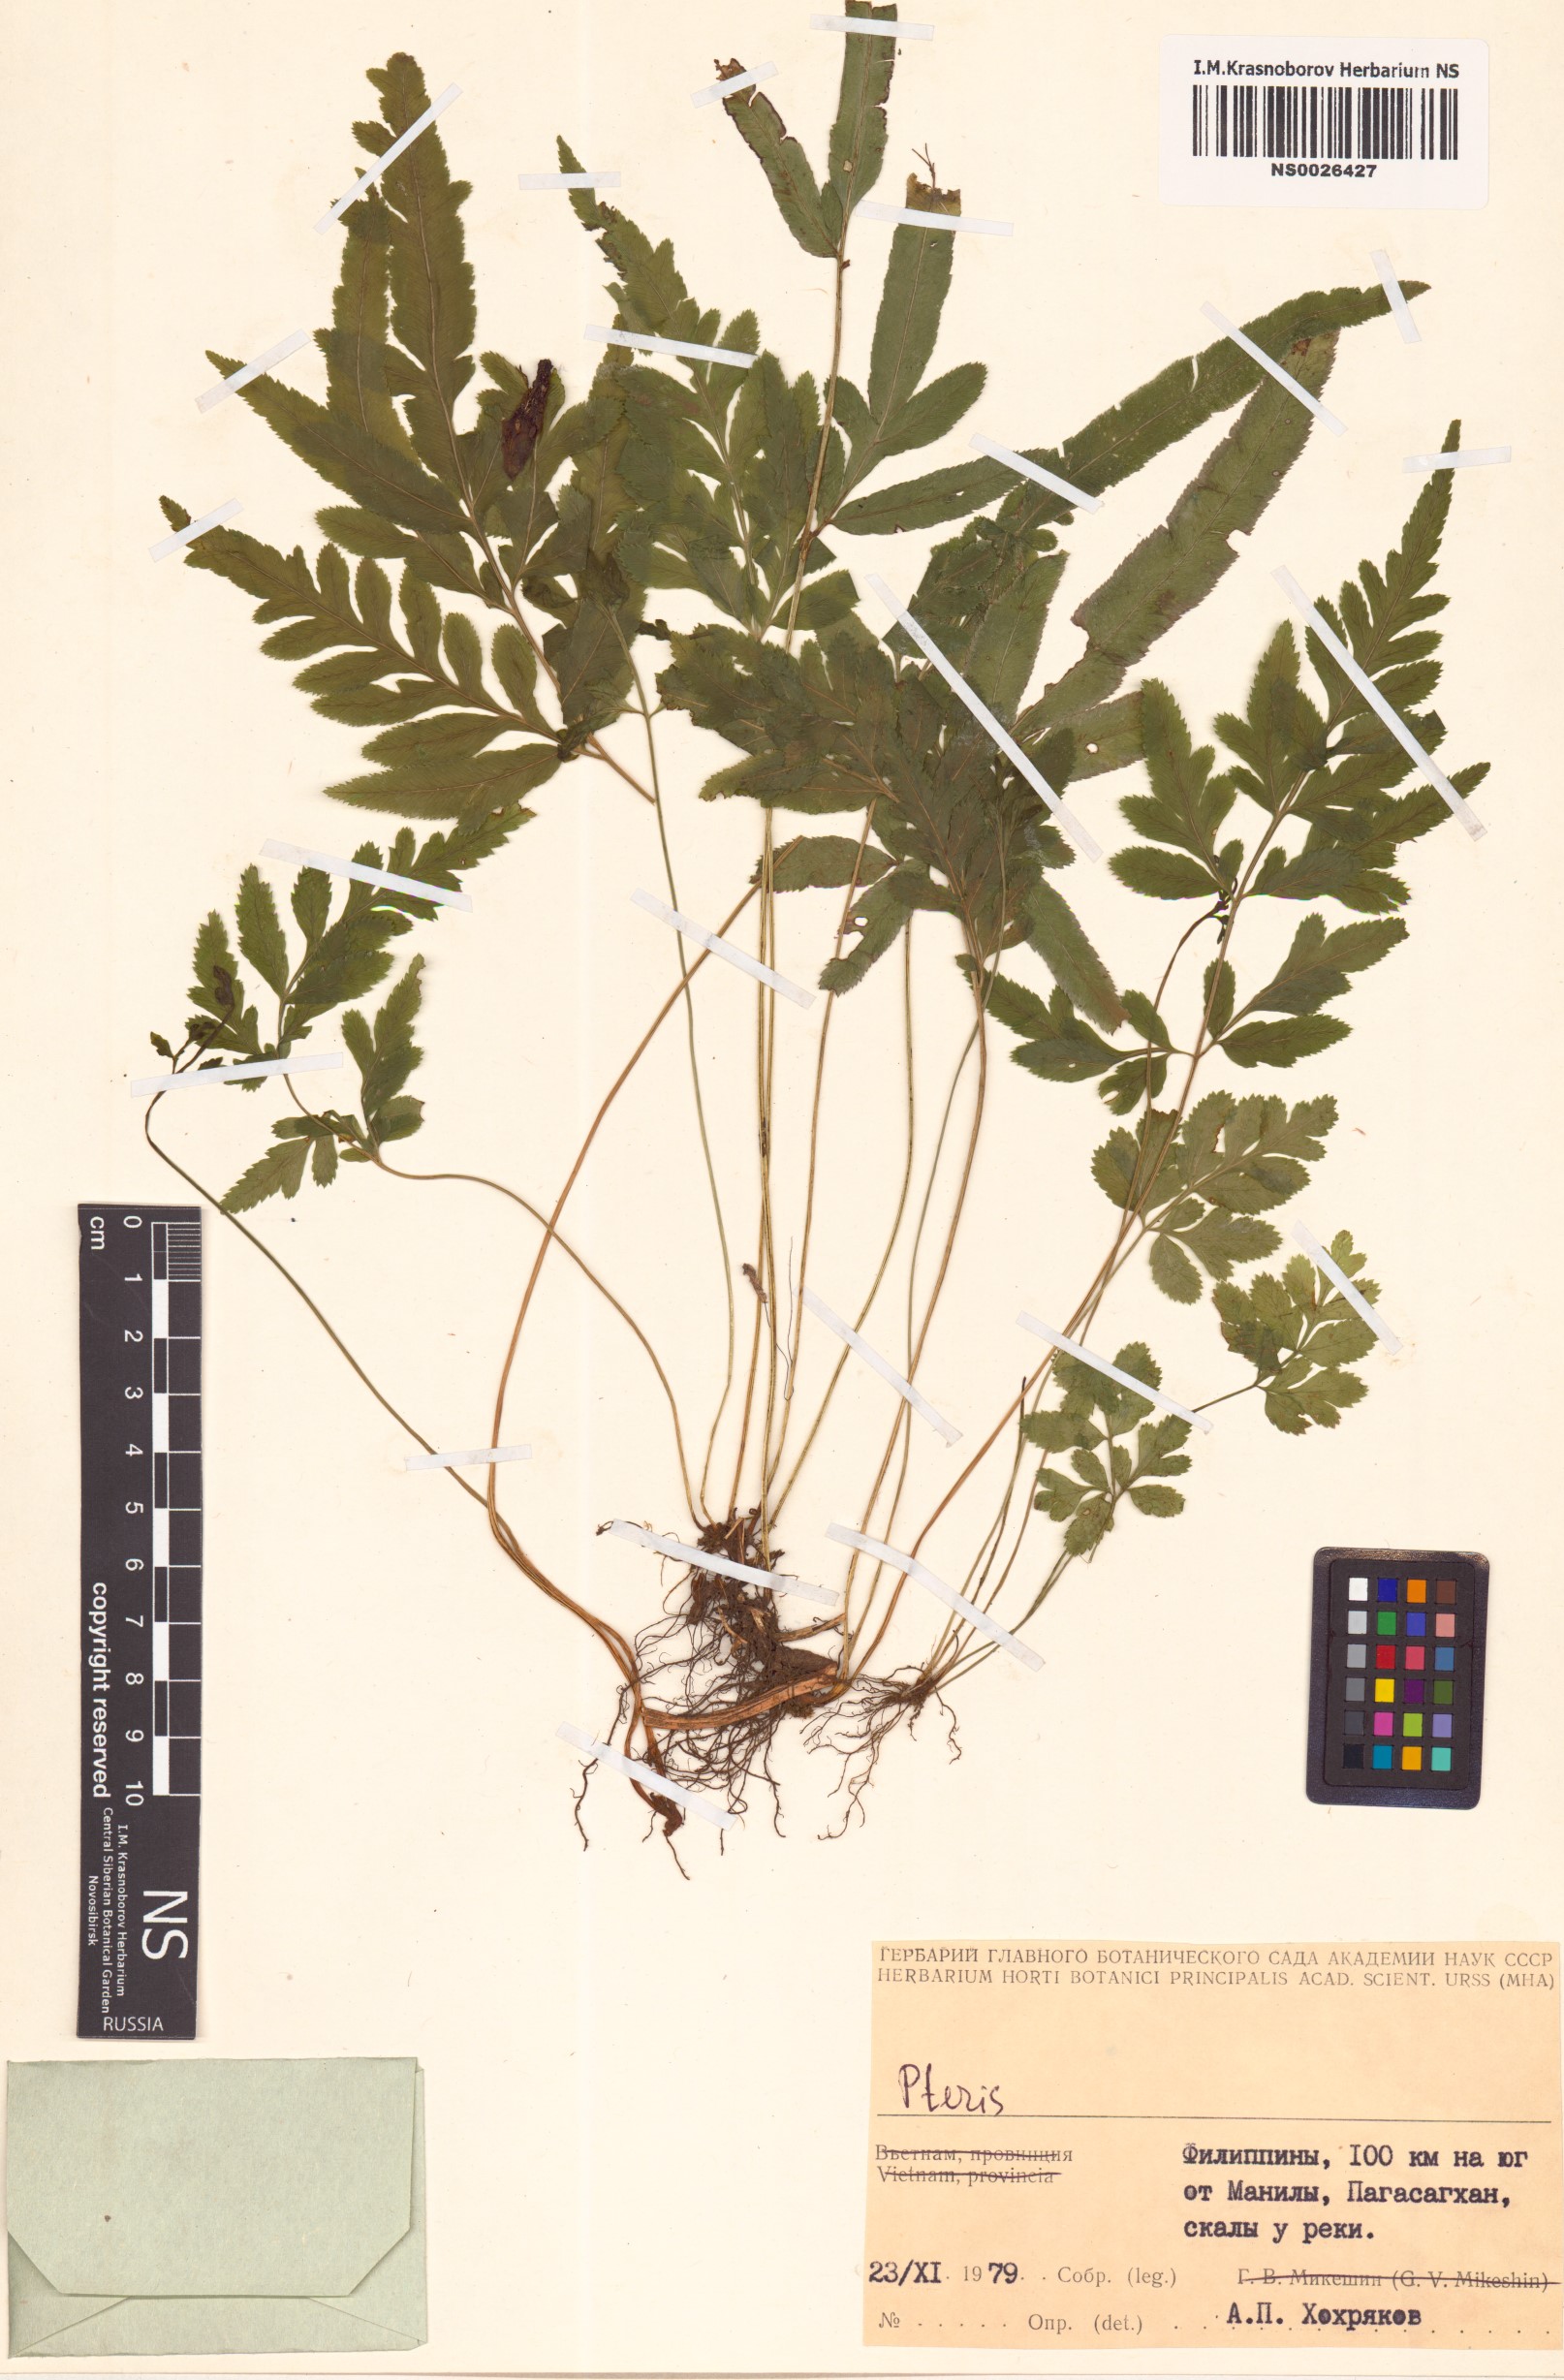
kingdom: Plantae
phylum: Tracheophyta
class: Polypodiopsida
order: Polypodiales
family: Pteridaceae
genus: Pteris
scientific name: Pteris
